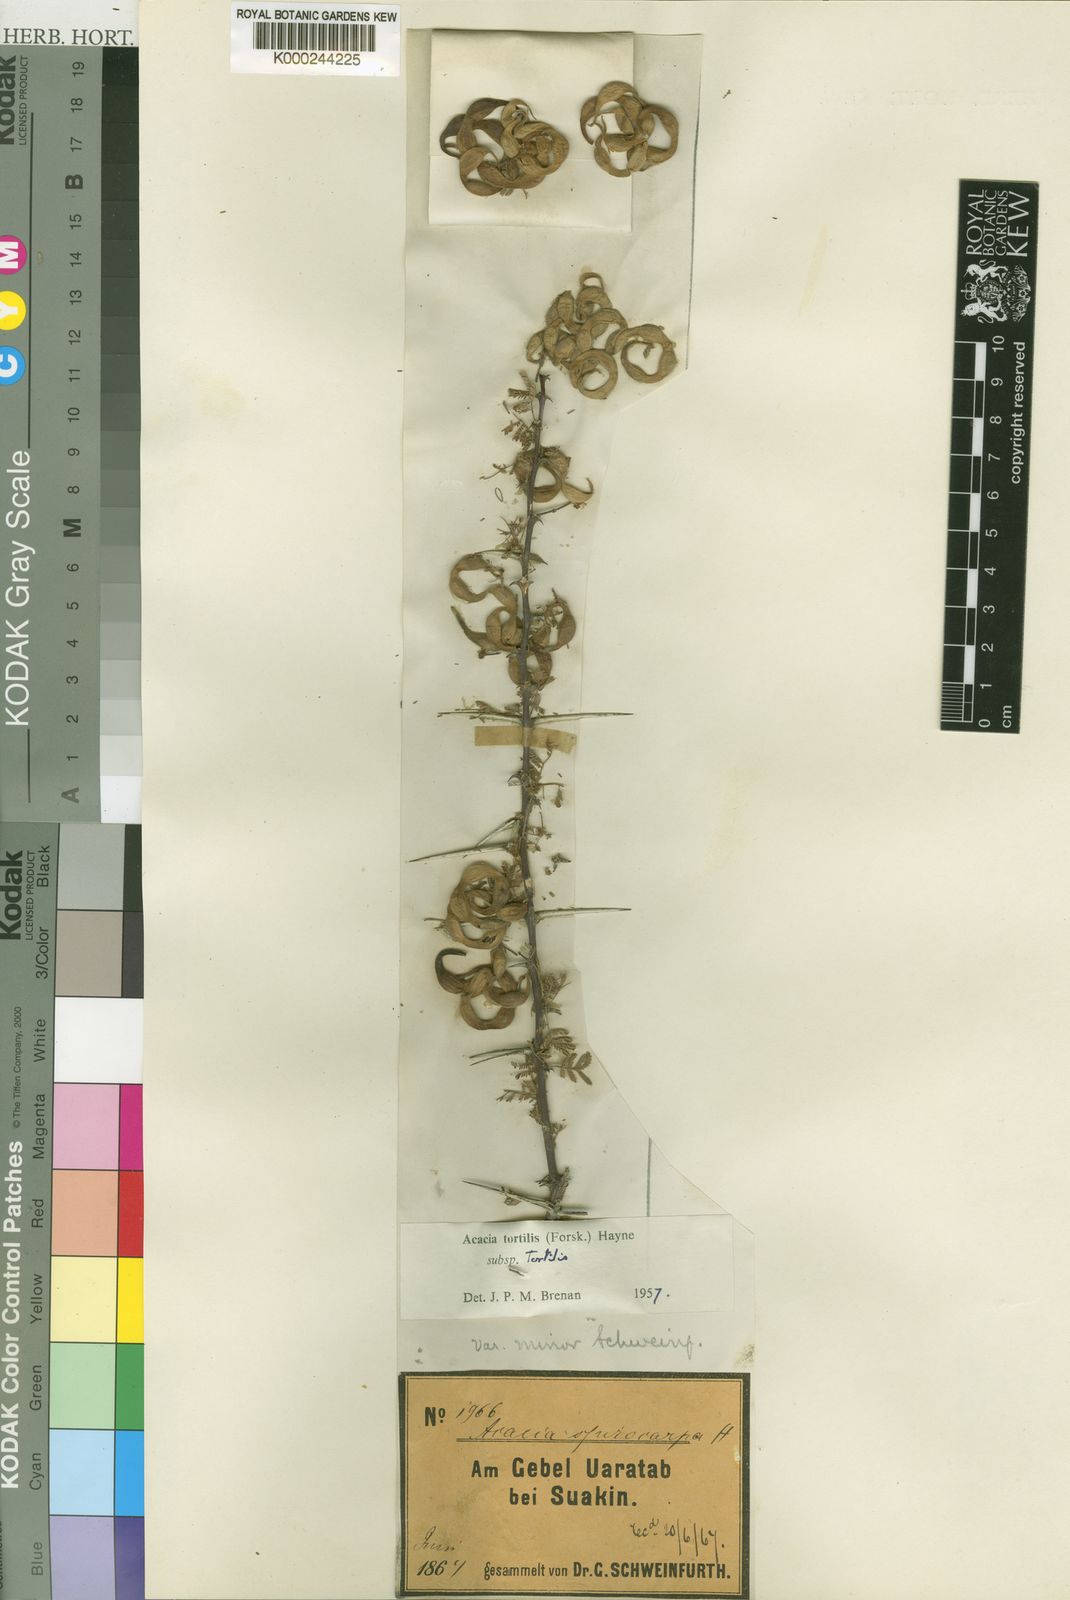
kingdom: Plantae
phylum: Tracheophyta
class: Magnoliopsida
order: Fabales
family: Fabaceae
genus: Vachellia
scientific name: Vachellia tortilis
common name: Umbrella thorn acacia
